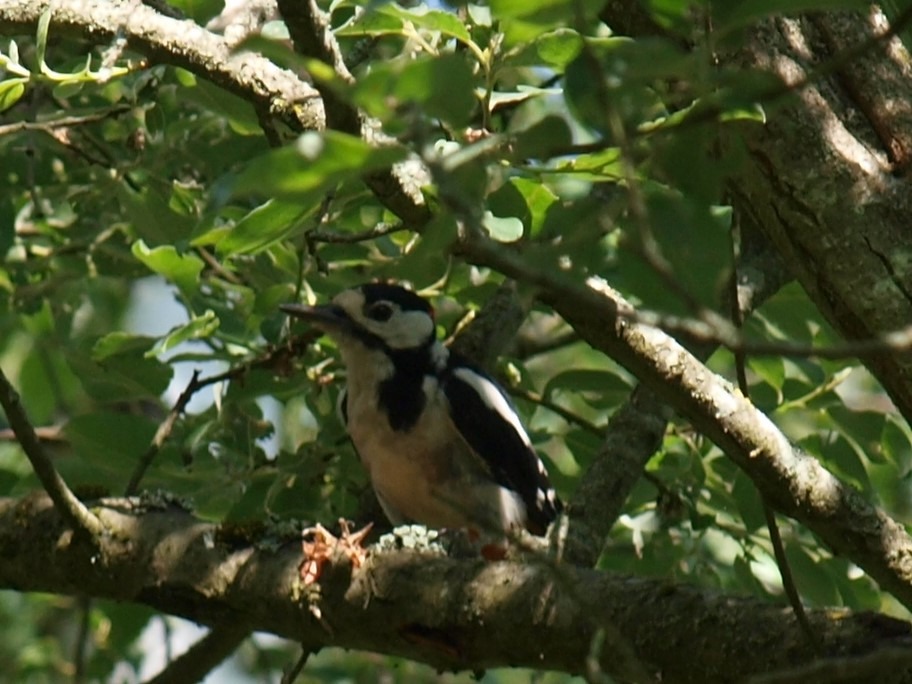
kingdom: Animalia
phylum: Chordata
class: Aves
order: Piciformes
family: Picidae
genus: Dendrocopos
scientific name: Dendrocopos major
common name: Stor flagspætte
